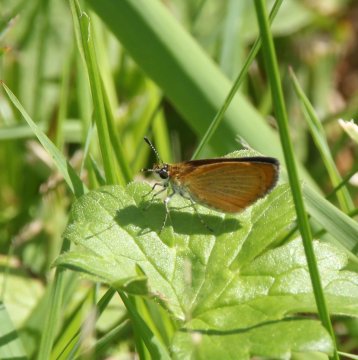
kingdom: Animalia
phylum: Arthropoda
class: Insecta
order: Lepidoptera
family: Hesperiidae
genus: Ancyloxypha
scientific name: Ancyloxypha numitor
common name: Least Skipper
